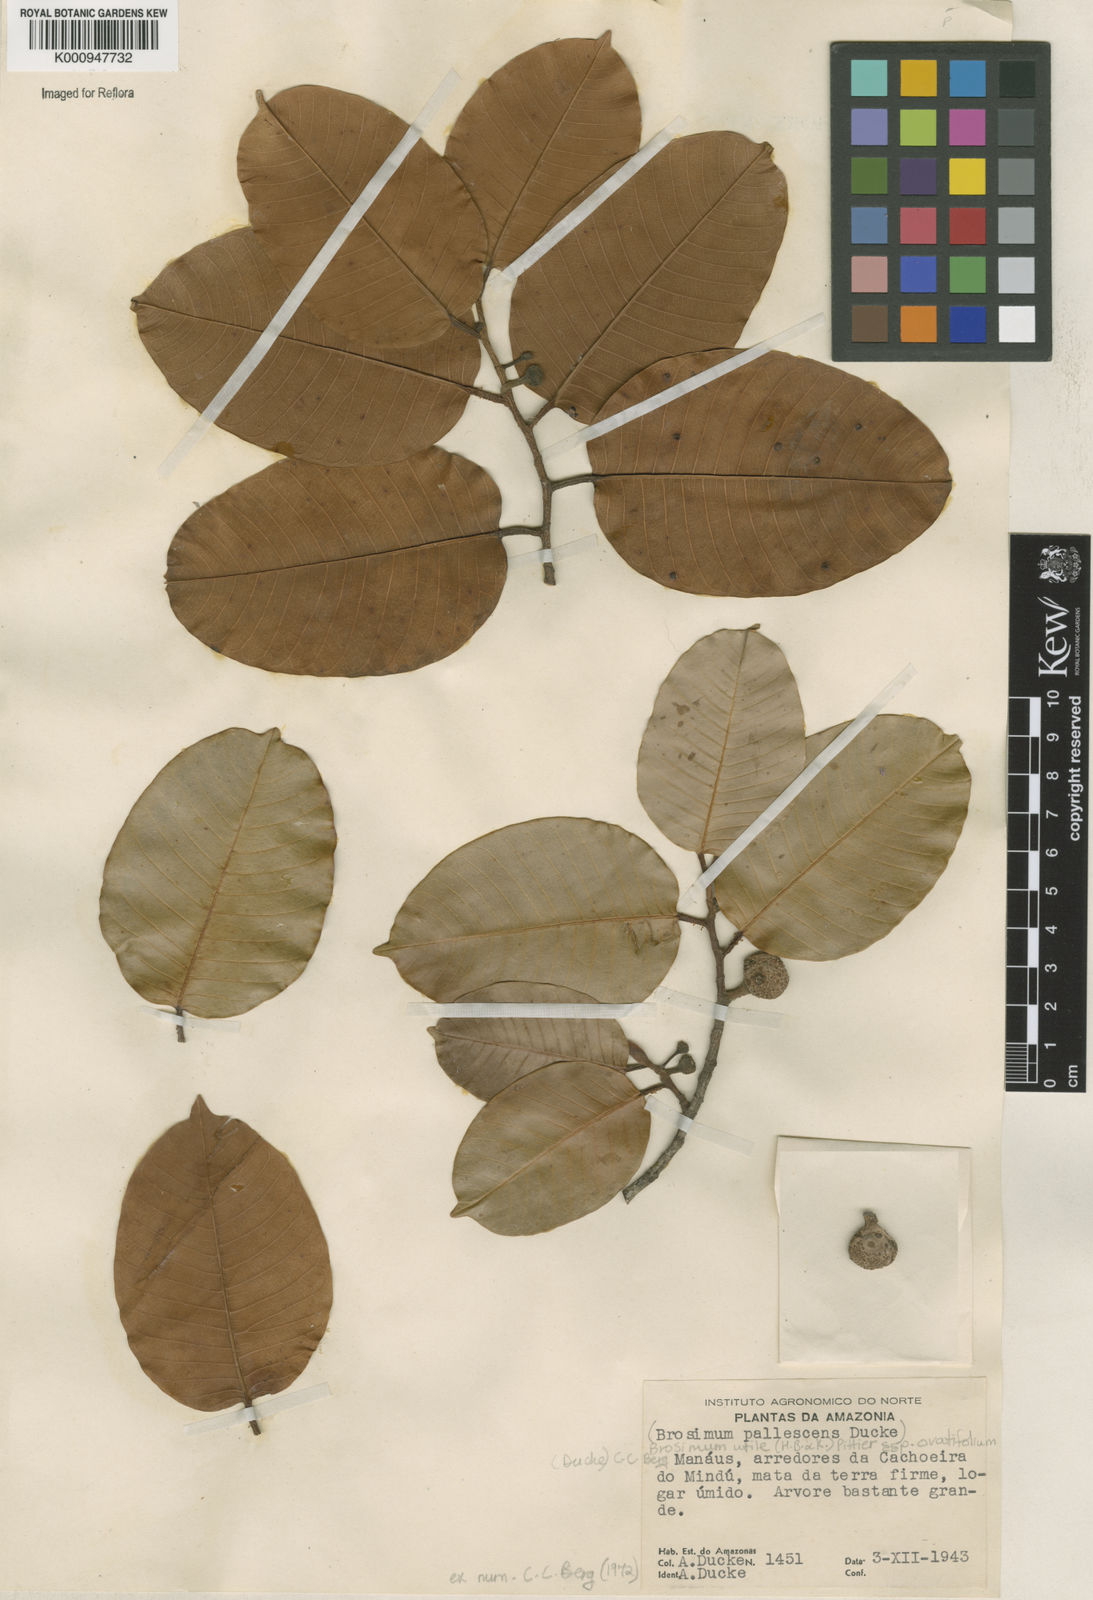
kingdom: Plantae
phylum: Tracheophyta
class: Magnoliopsida
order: Rosales
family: Moraceae
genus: Brosimum
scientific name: Brosimum utile
